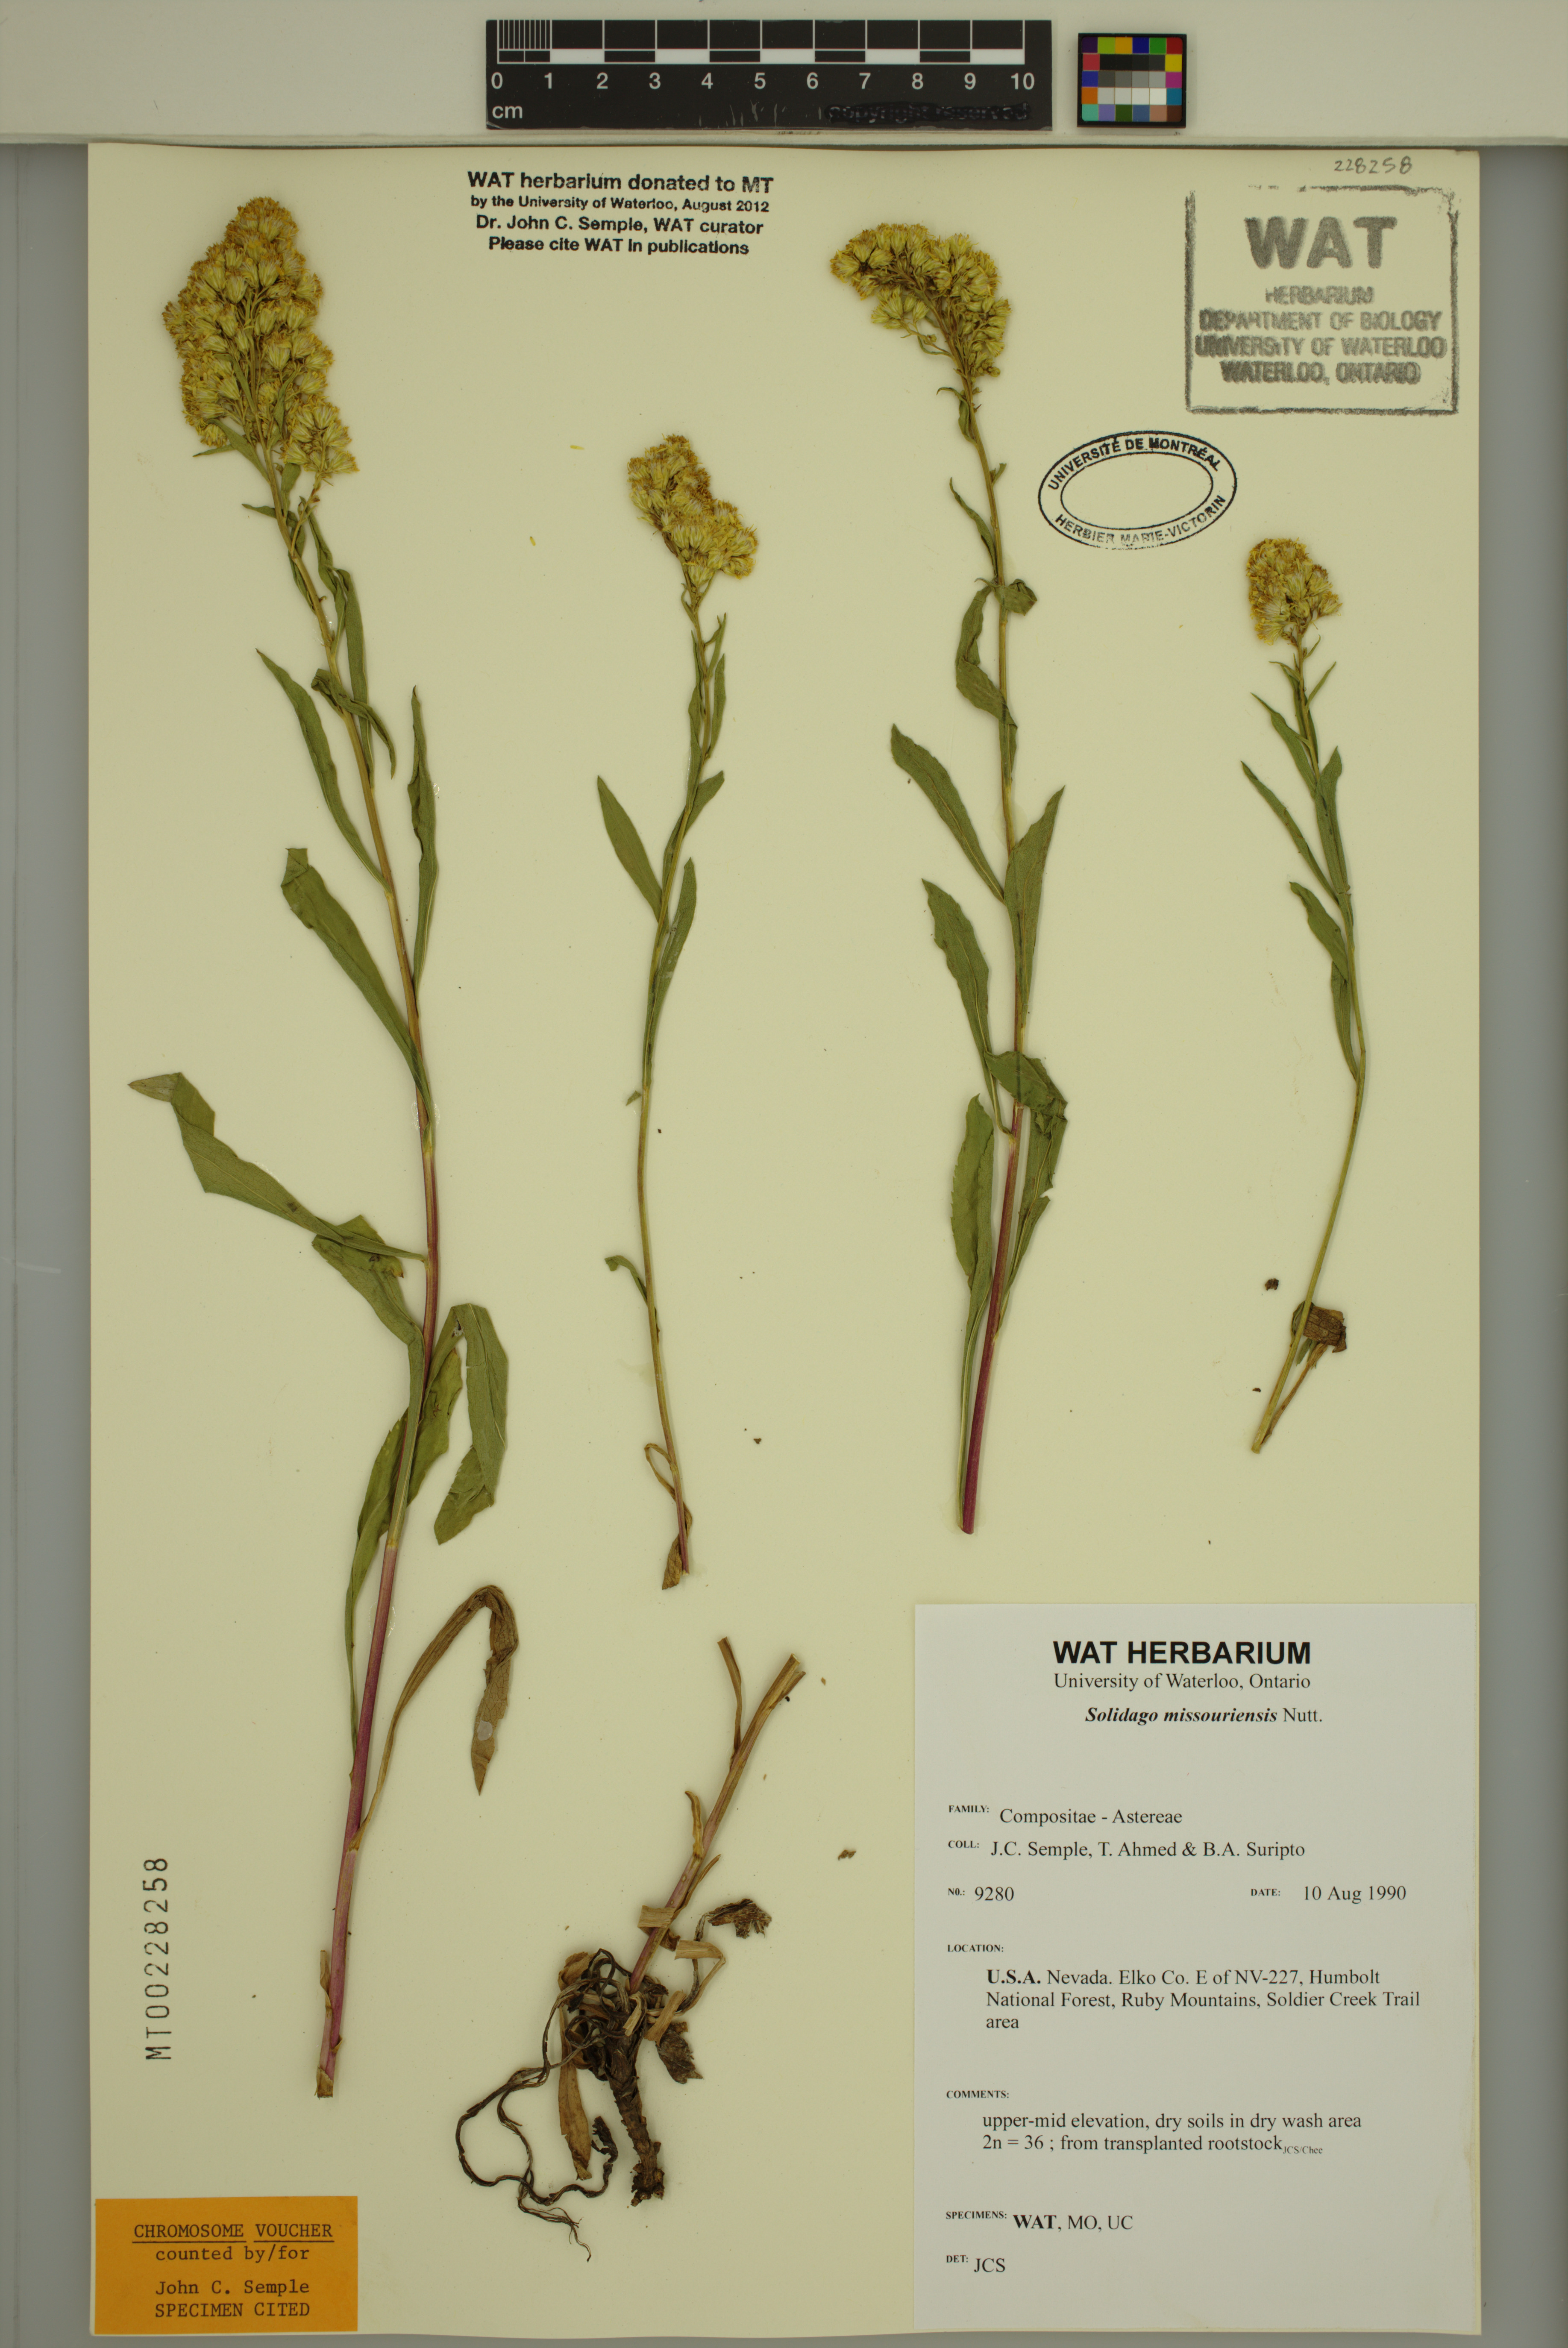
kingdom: Plantae
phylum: Tracheophyta
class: Magnoliopsida
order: Asterales
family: Asteraceae
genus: Solidago
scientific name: Solidago missouriensis
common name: Prairie goldenrod
